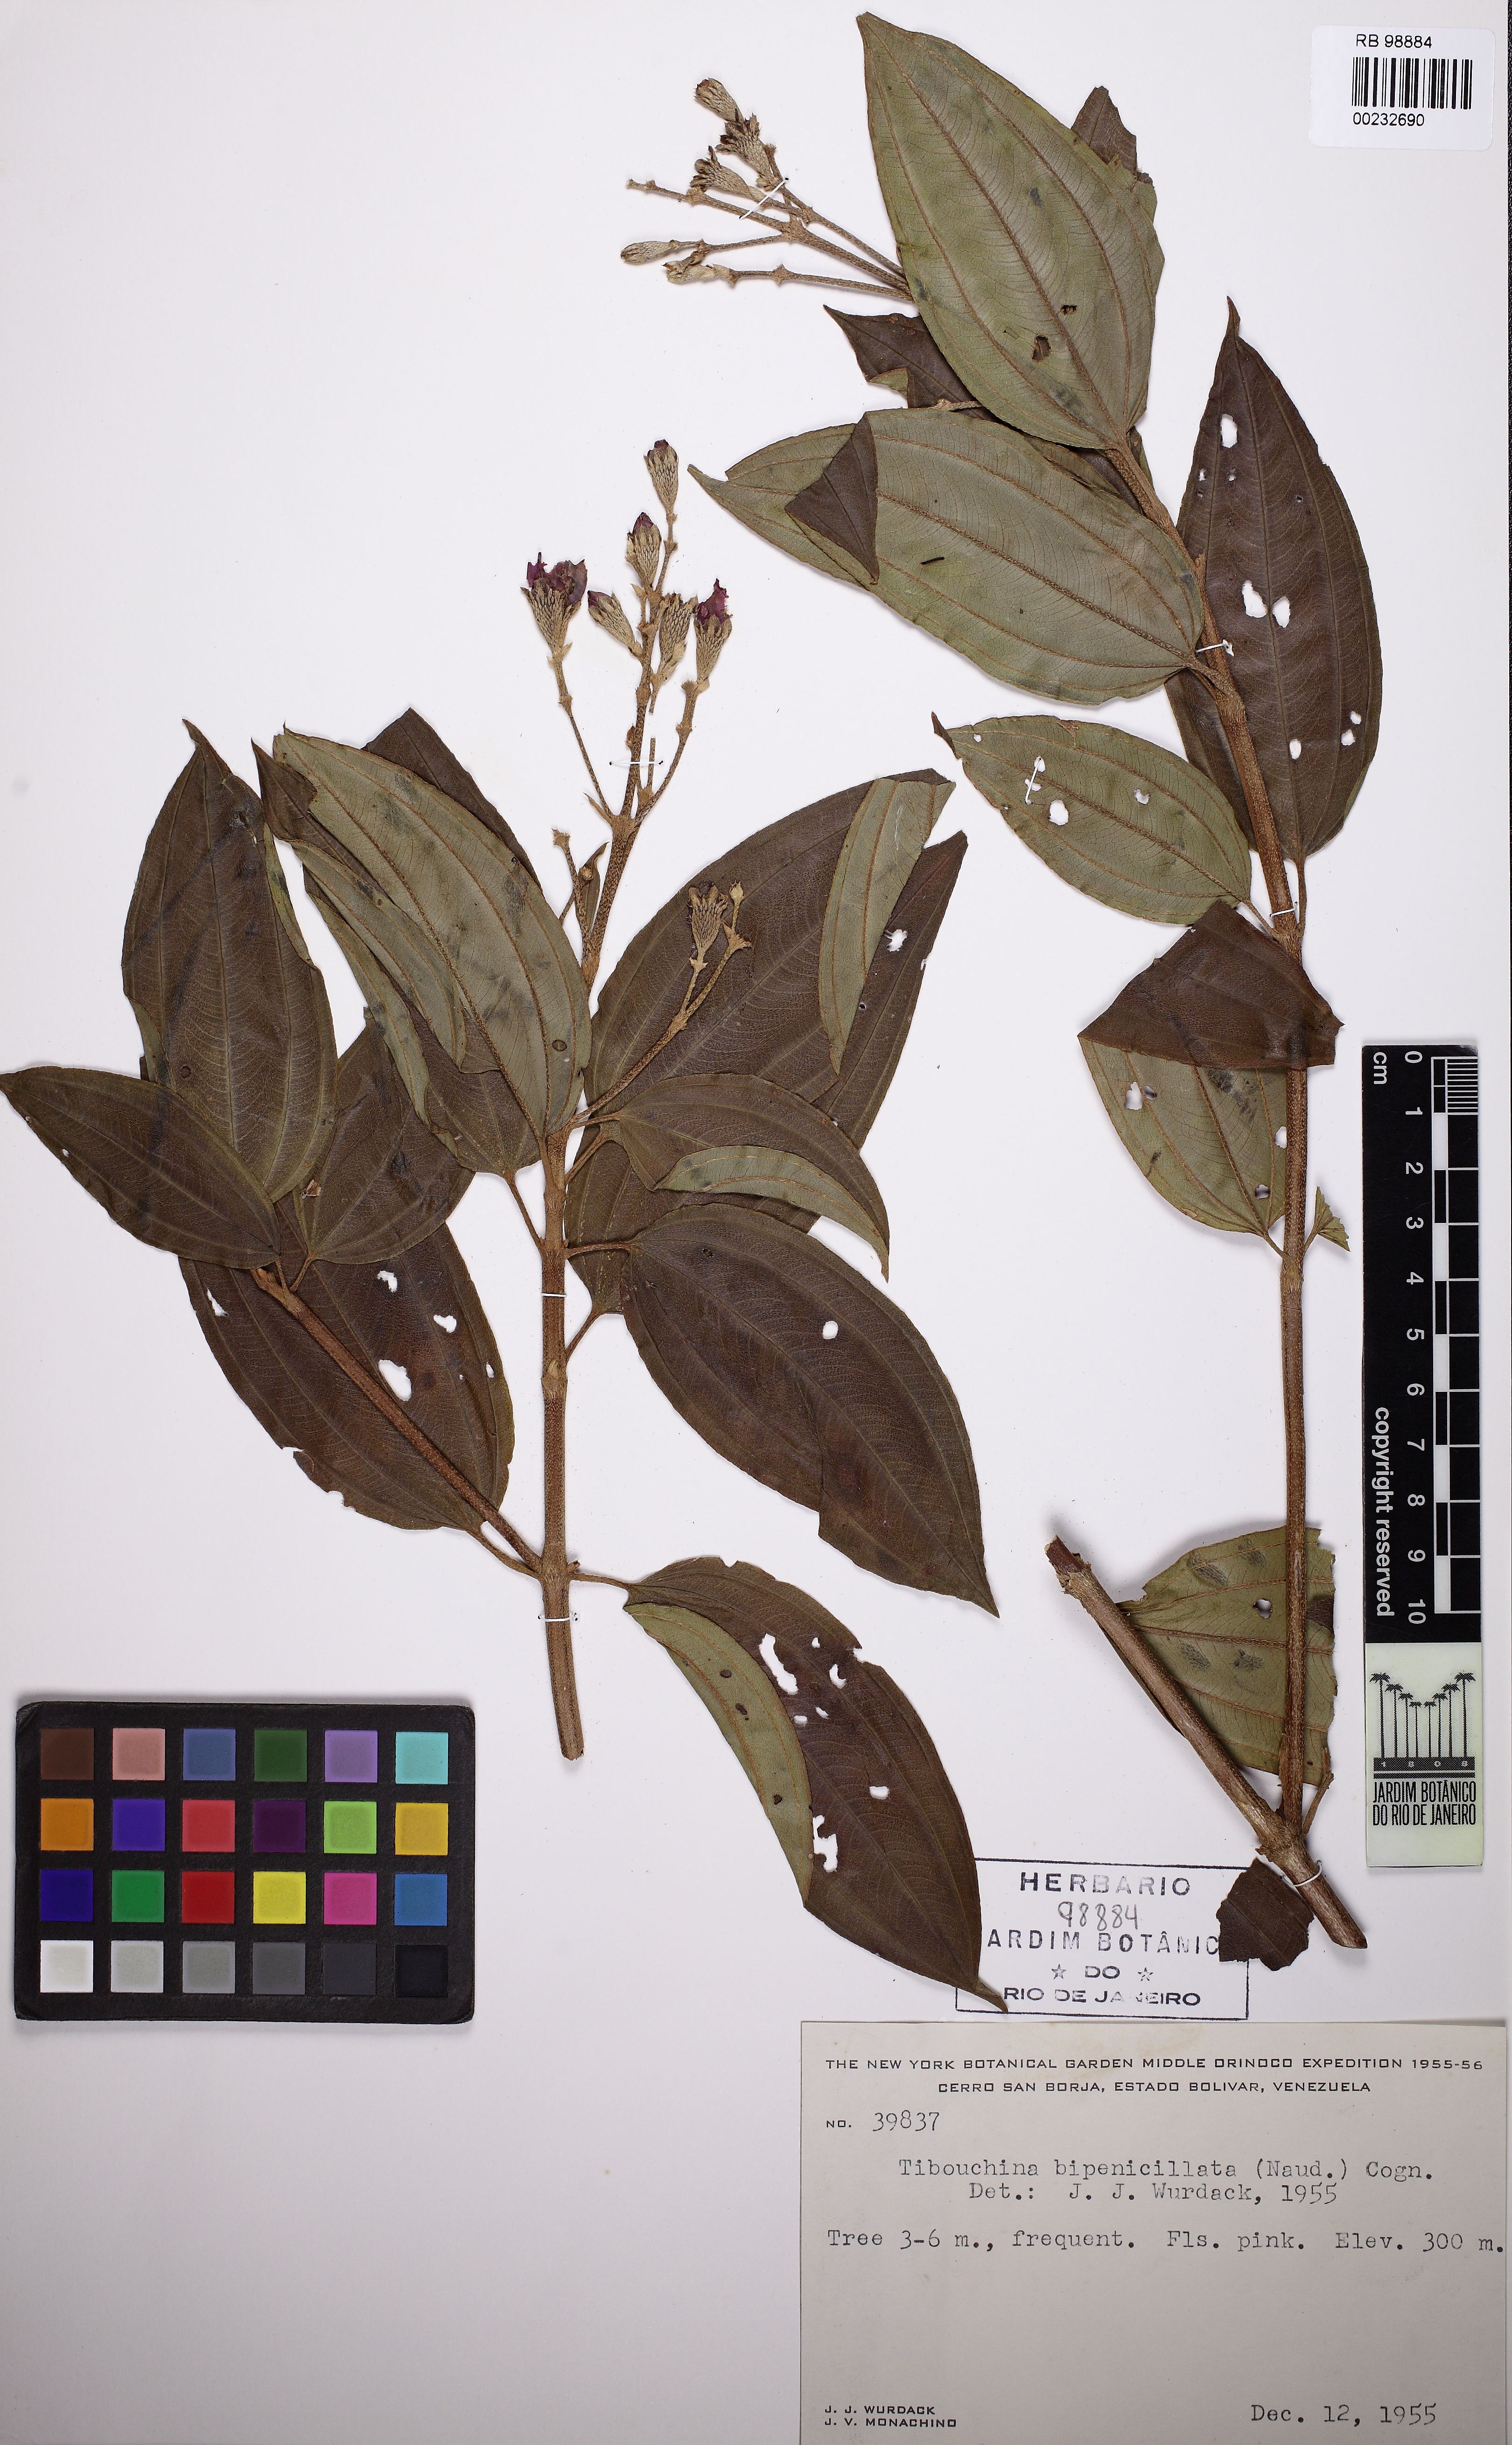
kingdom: Plantae
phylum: Tracheophyta
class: Magnoliopsida
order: Myrtales
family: Melastomataceae
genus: Pleroma
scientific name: Pleroma bipenicillatum
